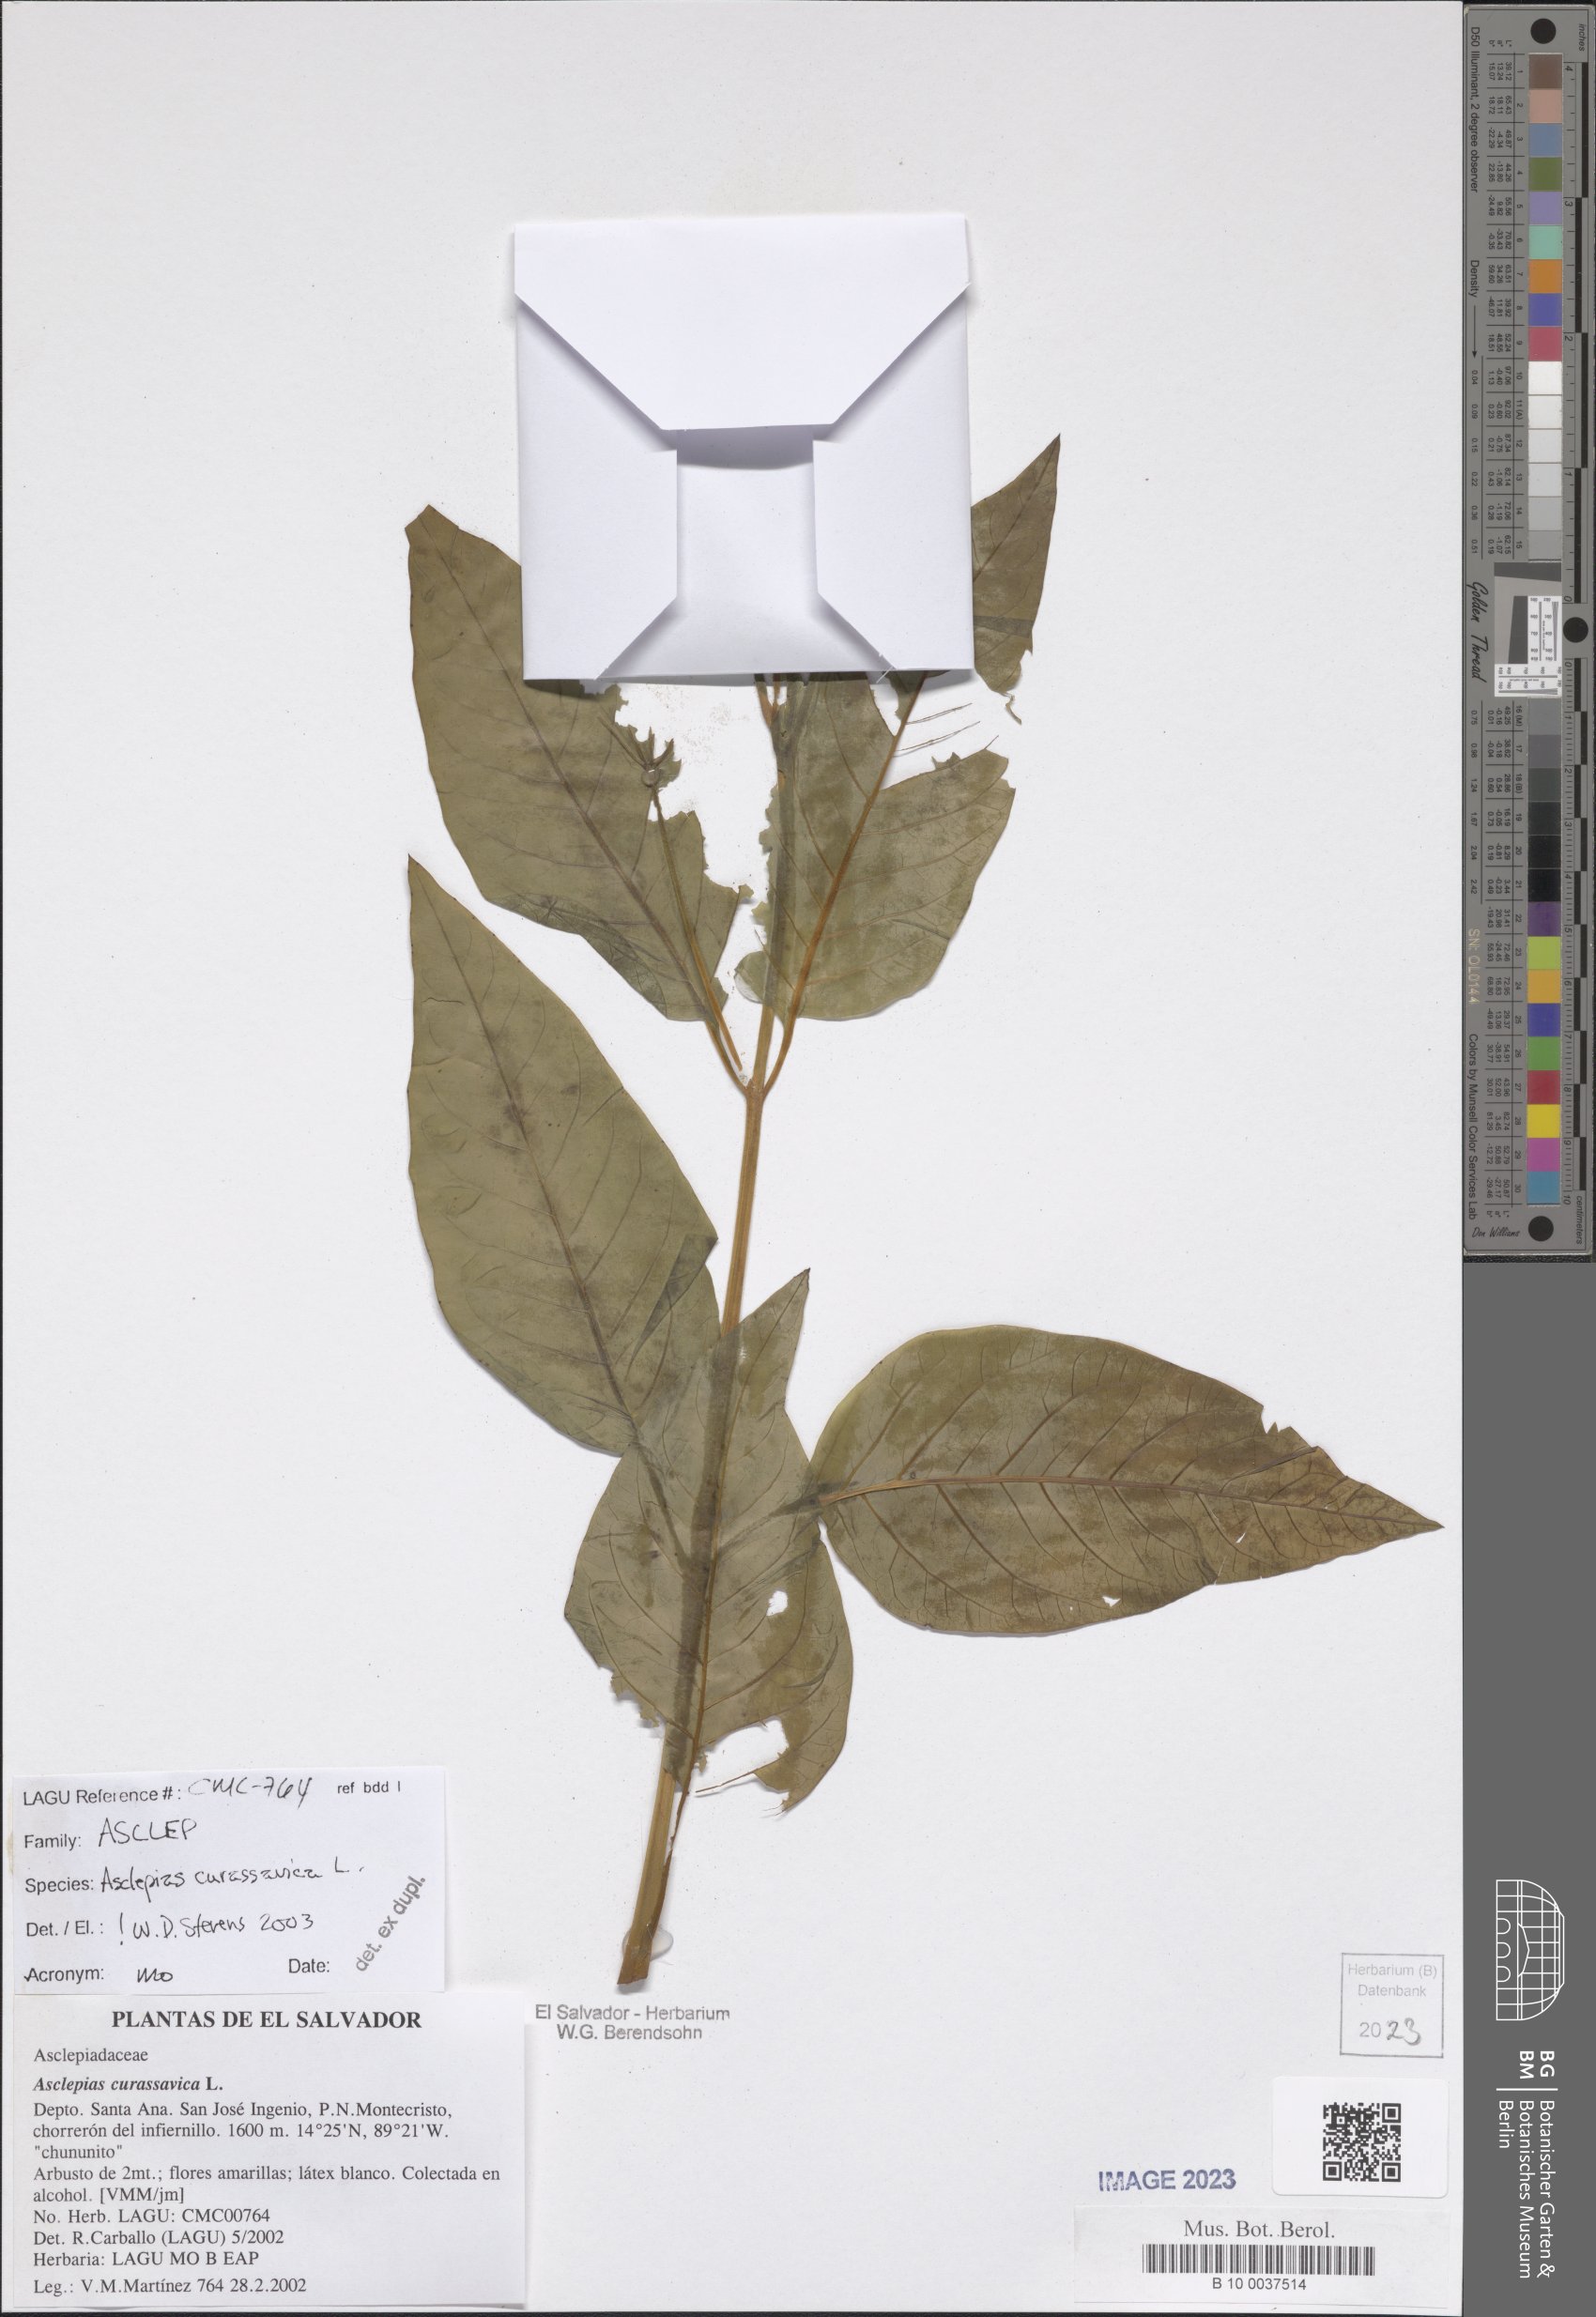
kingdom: Plantae
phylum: Tracheophyta
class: Magnoliopsida
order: Gentianales
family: Apocynaceae
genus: Asclepias
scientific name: Asclepias curassavica
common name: Bloodflower
